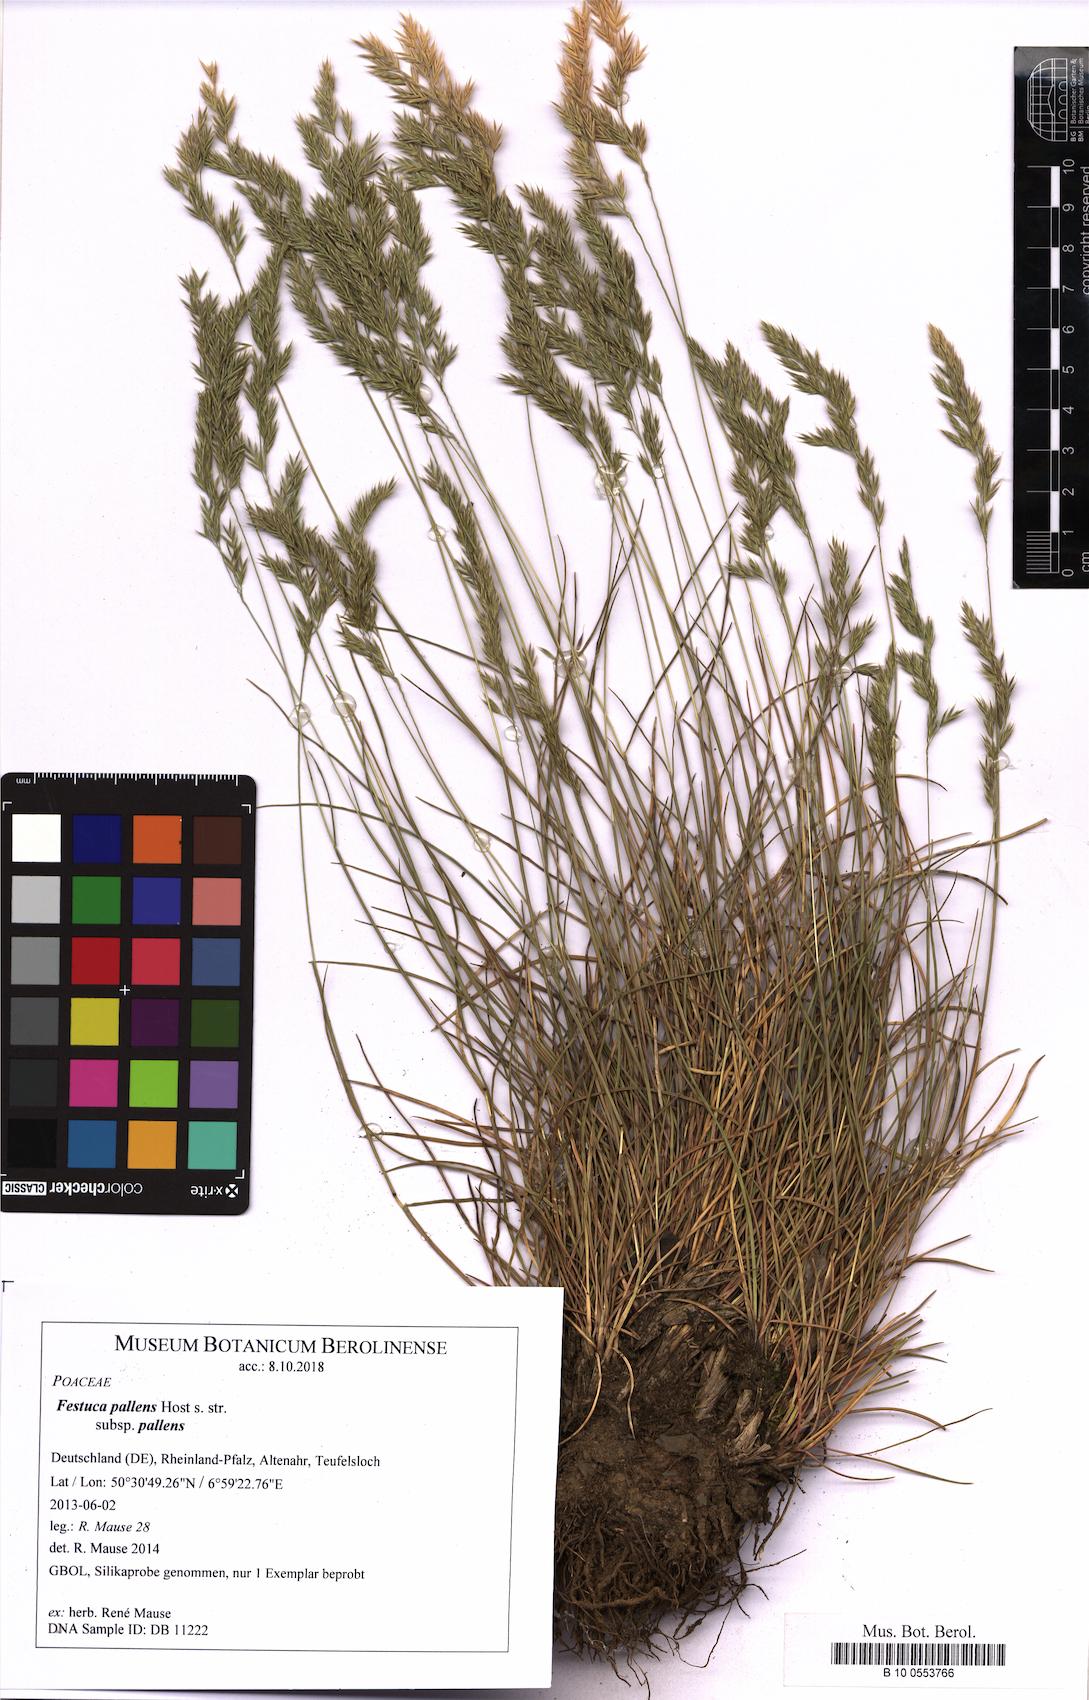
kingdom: Plantae
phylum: Tracheophyta
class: Liliopsida
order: Poales
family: Poaceae
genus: Festuca
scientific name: Festuca pallens
